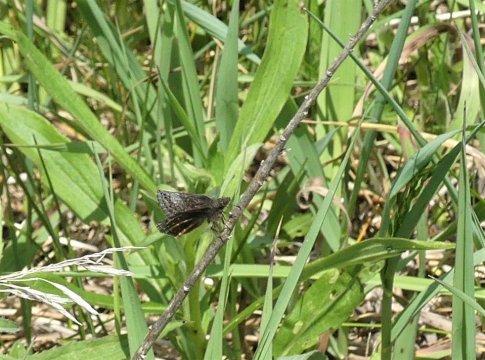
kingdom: Animalia
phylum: Arthropoda
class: Insecta
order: Lepidoptera
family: Hesperiidae
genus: Erynnis
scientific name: Erynnis icelus
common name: Dreamy Duskywing
